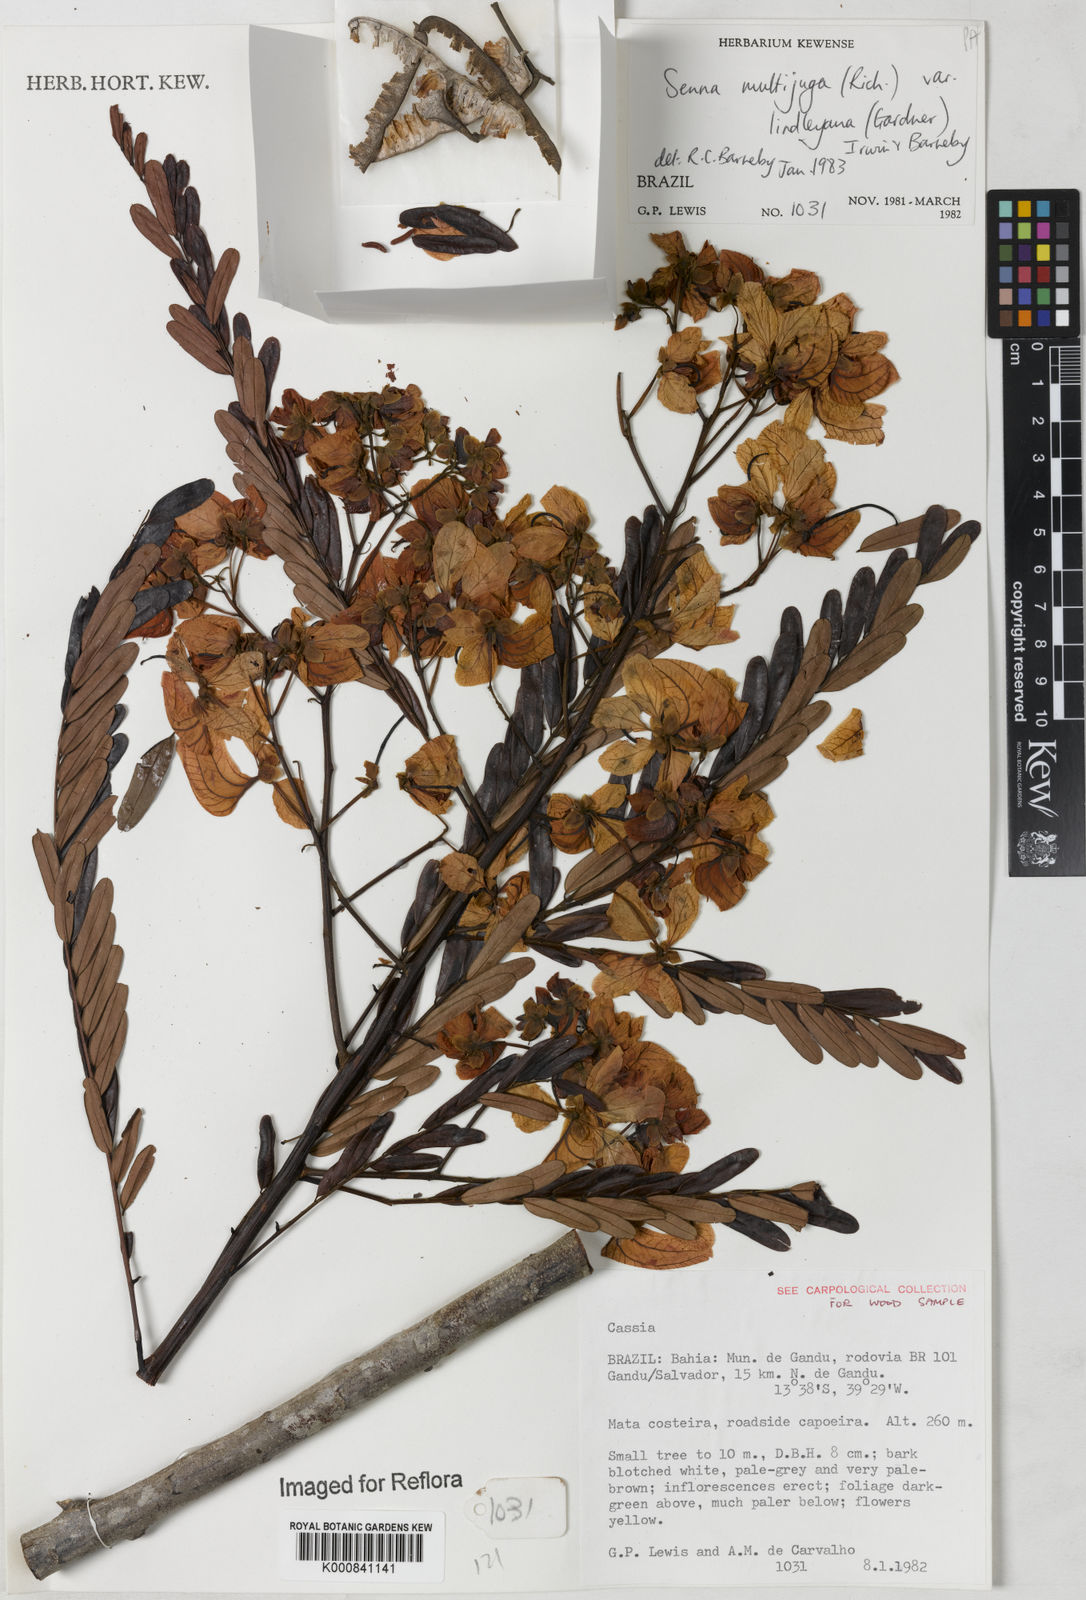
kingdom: Plantae
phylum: Tracheophyta
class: Magnoliopsida
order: Fabales
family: Fabaceae
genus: Senna
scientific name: Senna multijuga
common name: False sicklepod
